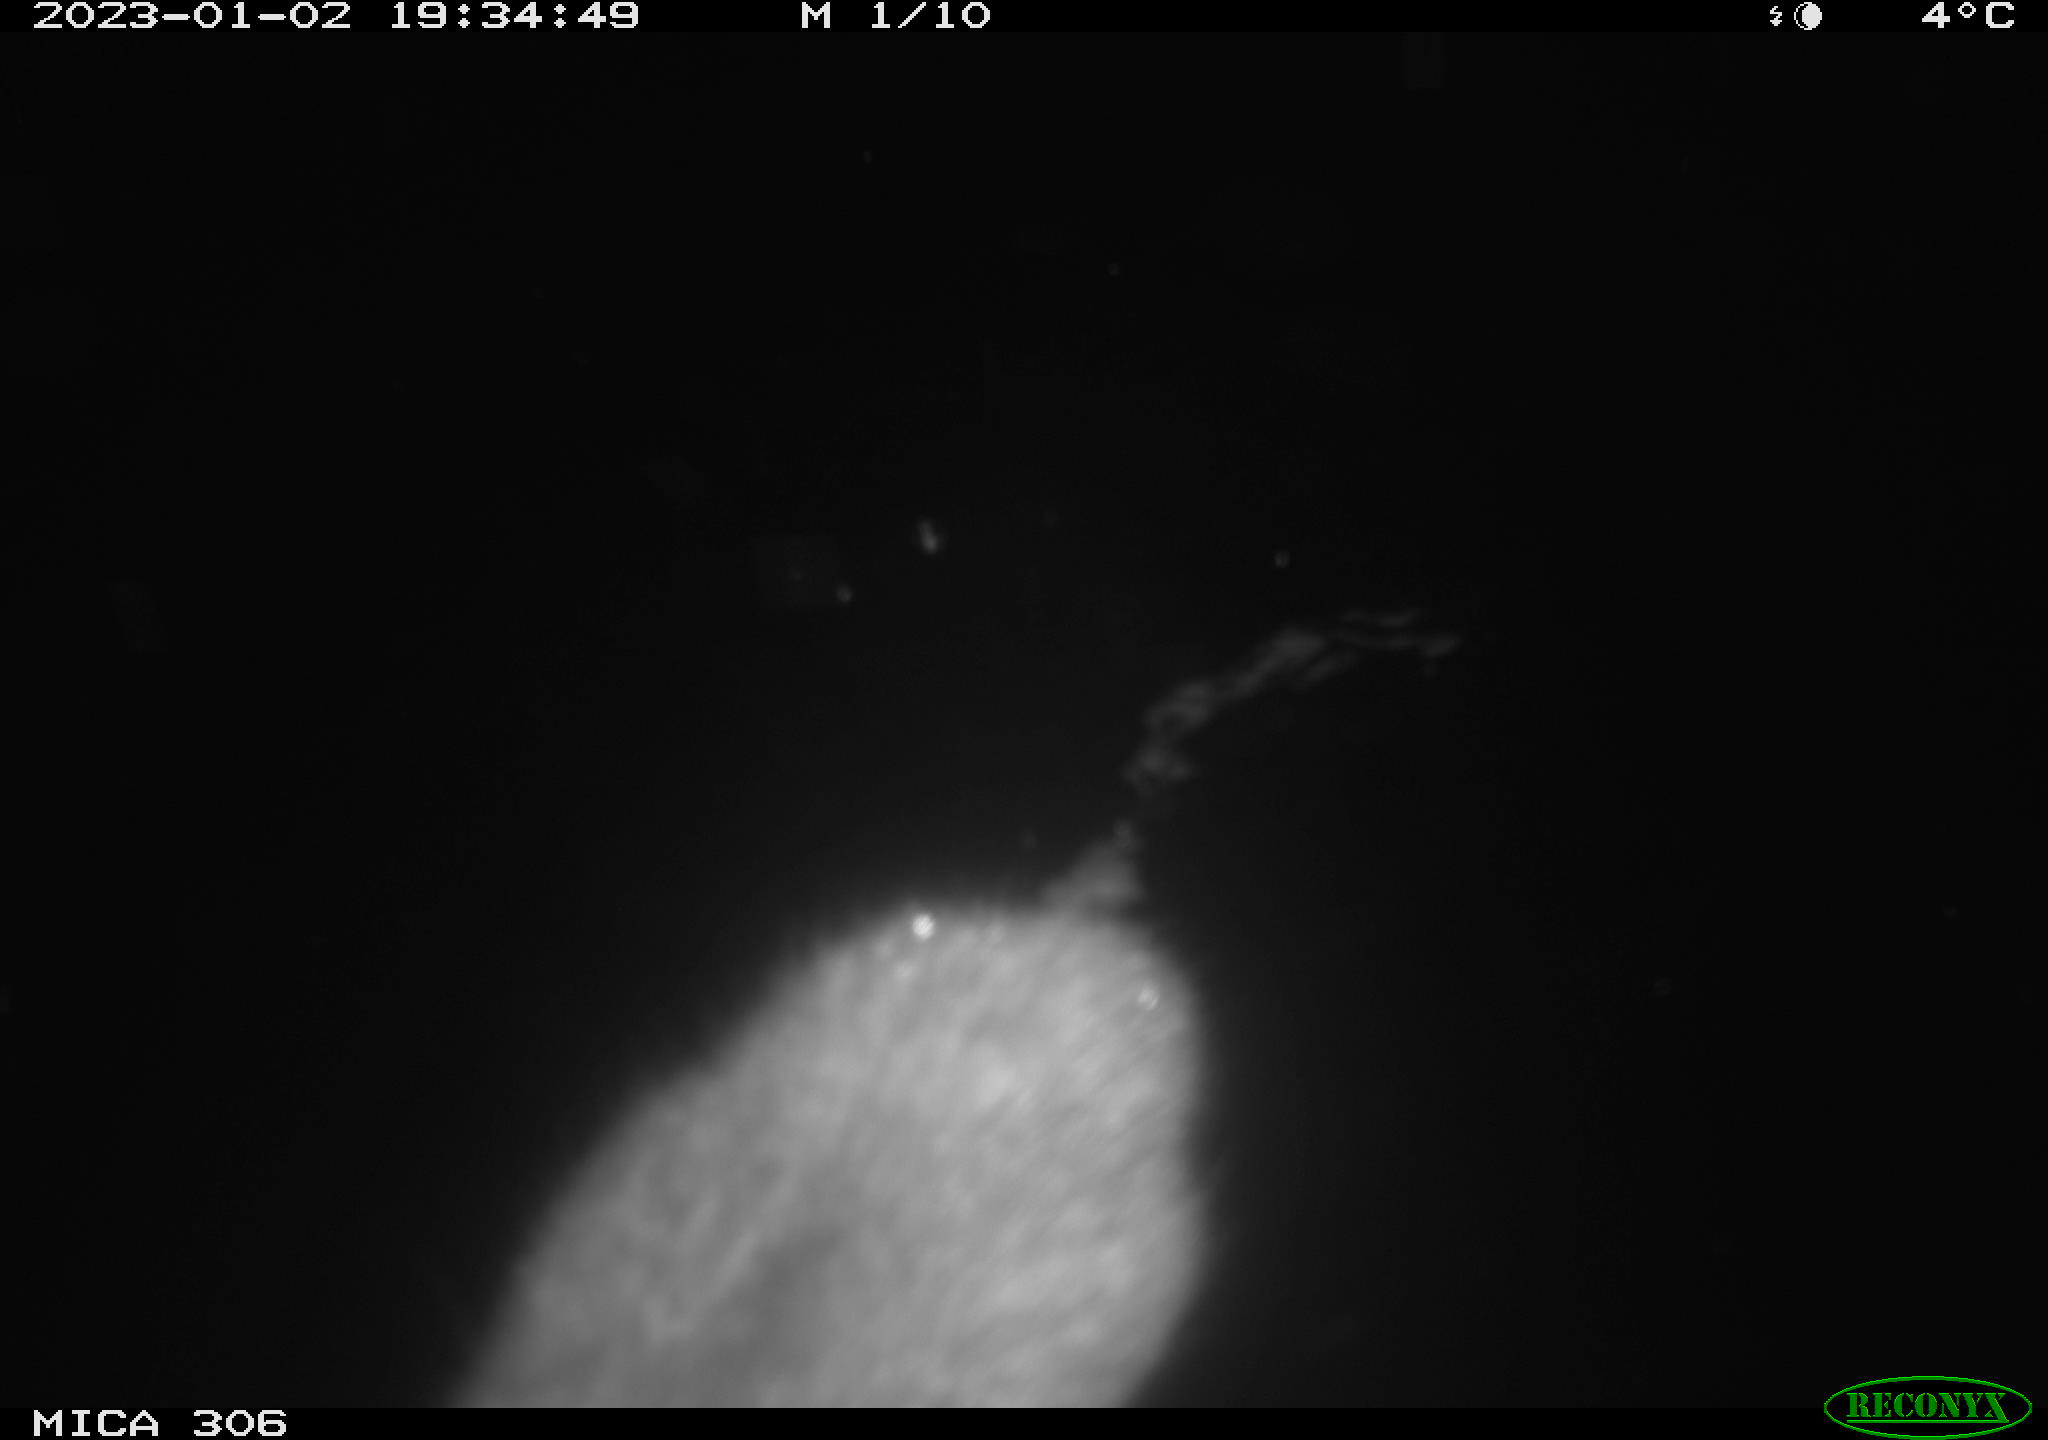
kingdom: Animalia
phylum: Chordata
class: Mammalia
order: Rodentia
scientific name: Rodentia
